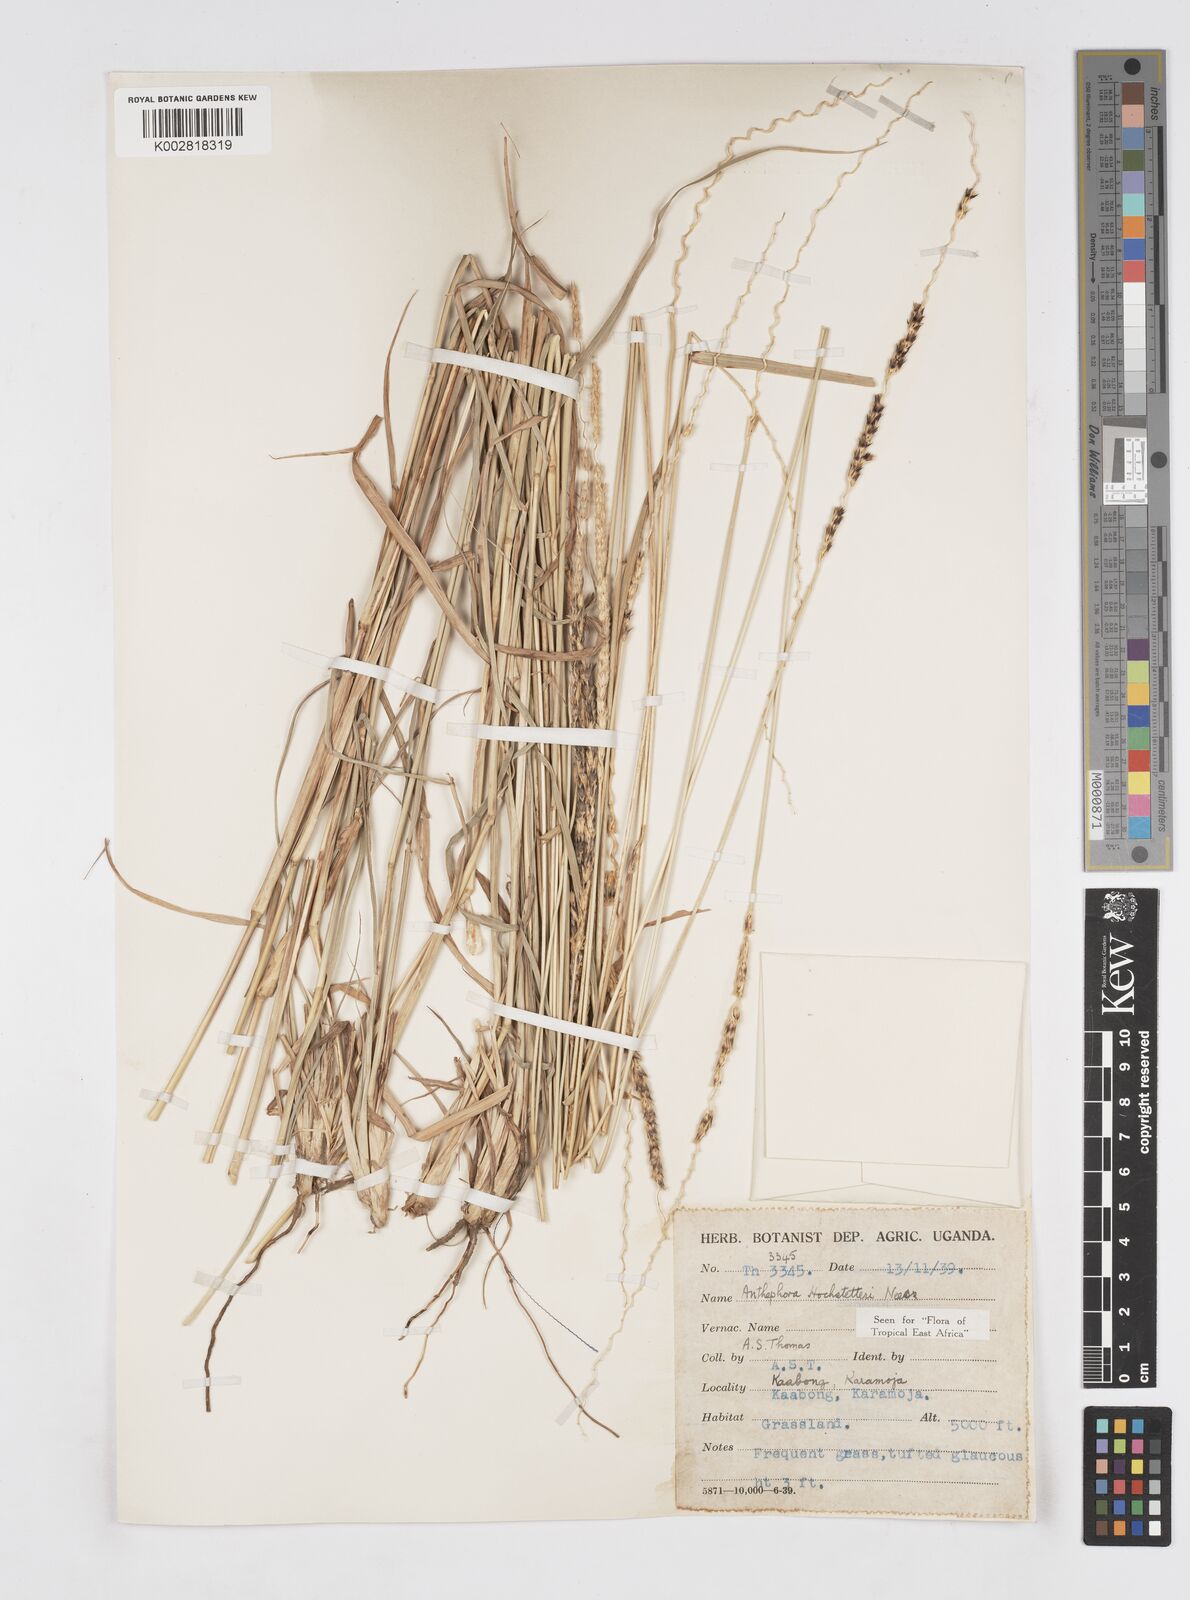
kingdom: Plantae
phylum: Tracheophyta
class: Liliopsida
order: Poales
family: Poaceae
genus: Anthephora
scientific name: Anthephora pubescens
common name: Wool grass
